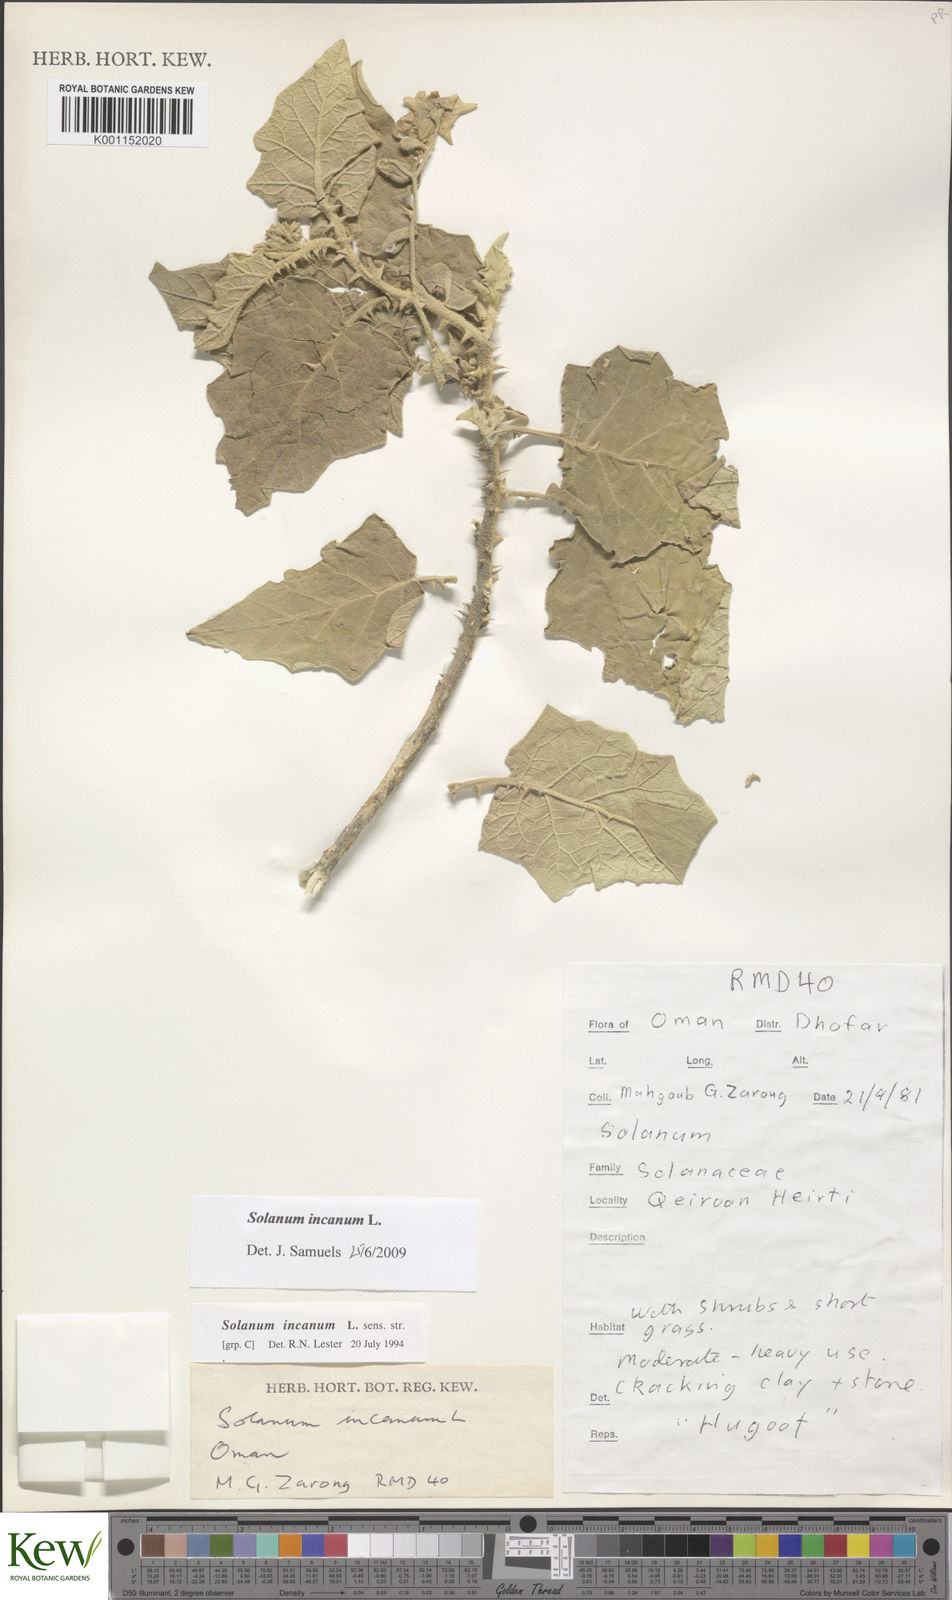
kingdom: Plantae
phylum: Tracheophyta
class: Magnoliopsida
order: Solanales
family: Solanaceae
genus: Solanum
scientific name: Solanum incanum
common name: Bitter apple
